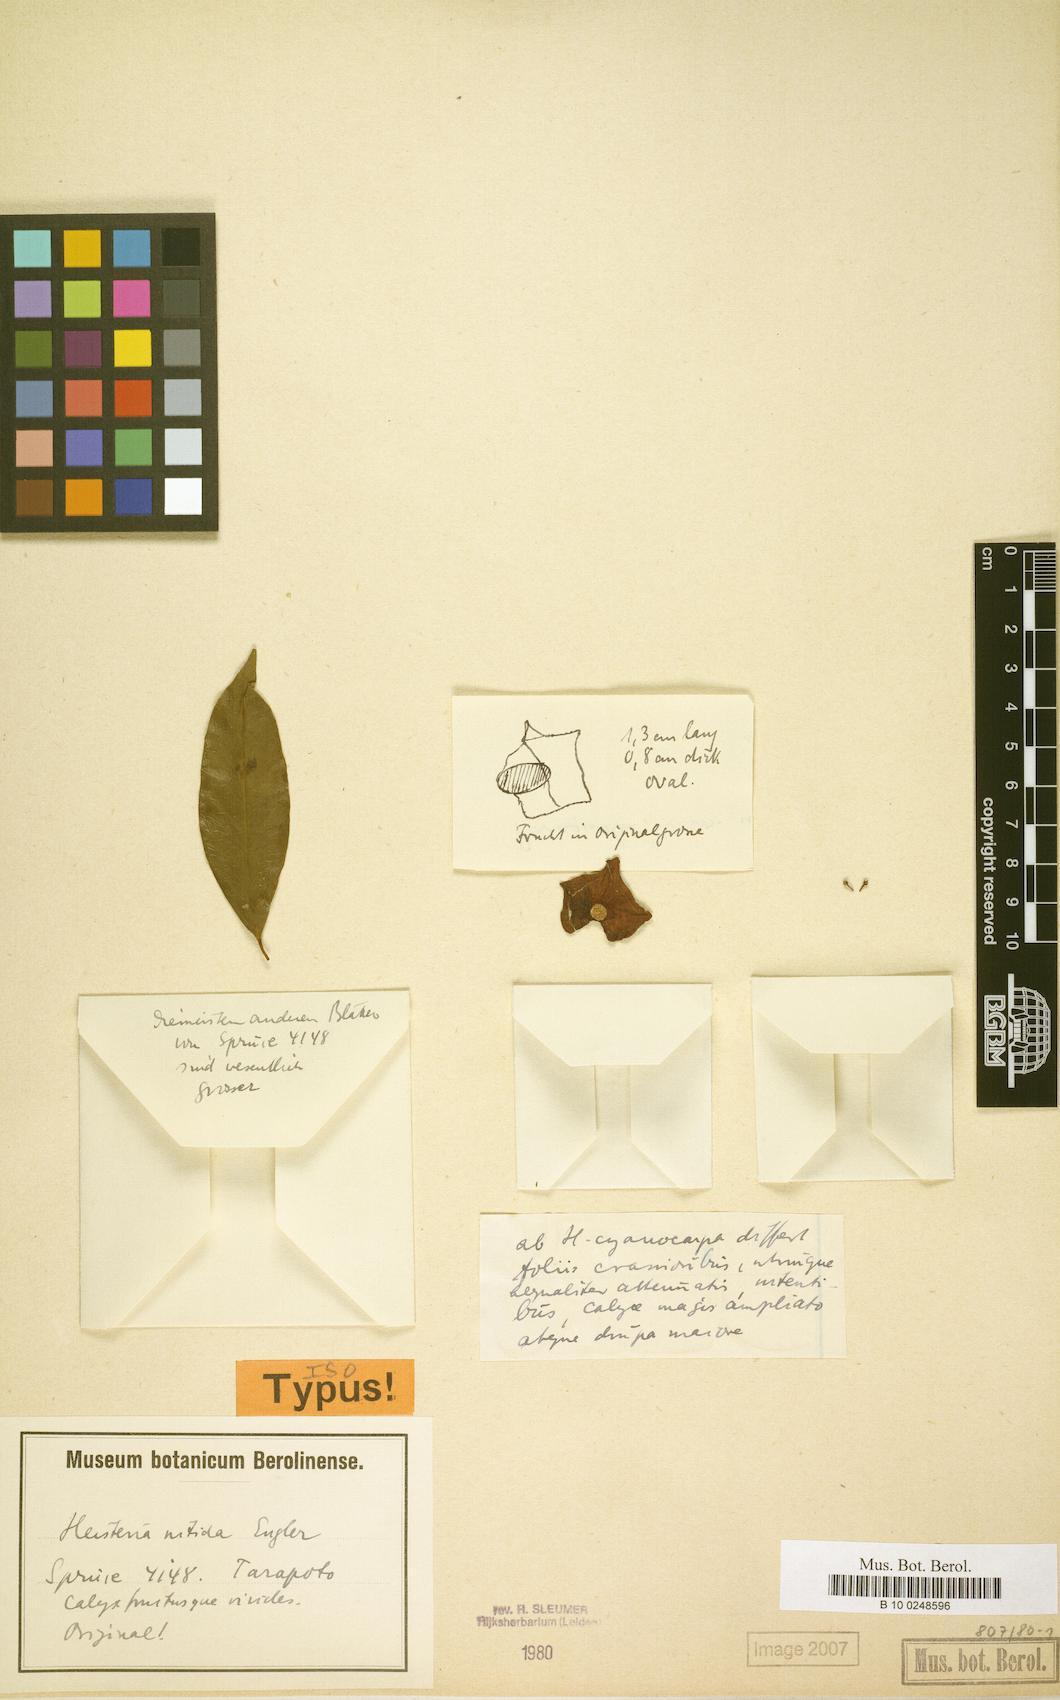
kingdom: Plantae
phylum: Tracheophyta
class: Magnoliopsida
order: Santalales
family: Erythropalaceae
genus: Heisteria
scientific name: Heisteria nitida
